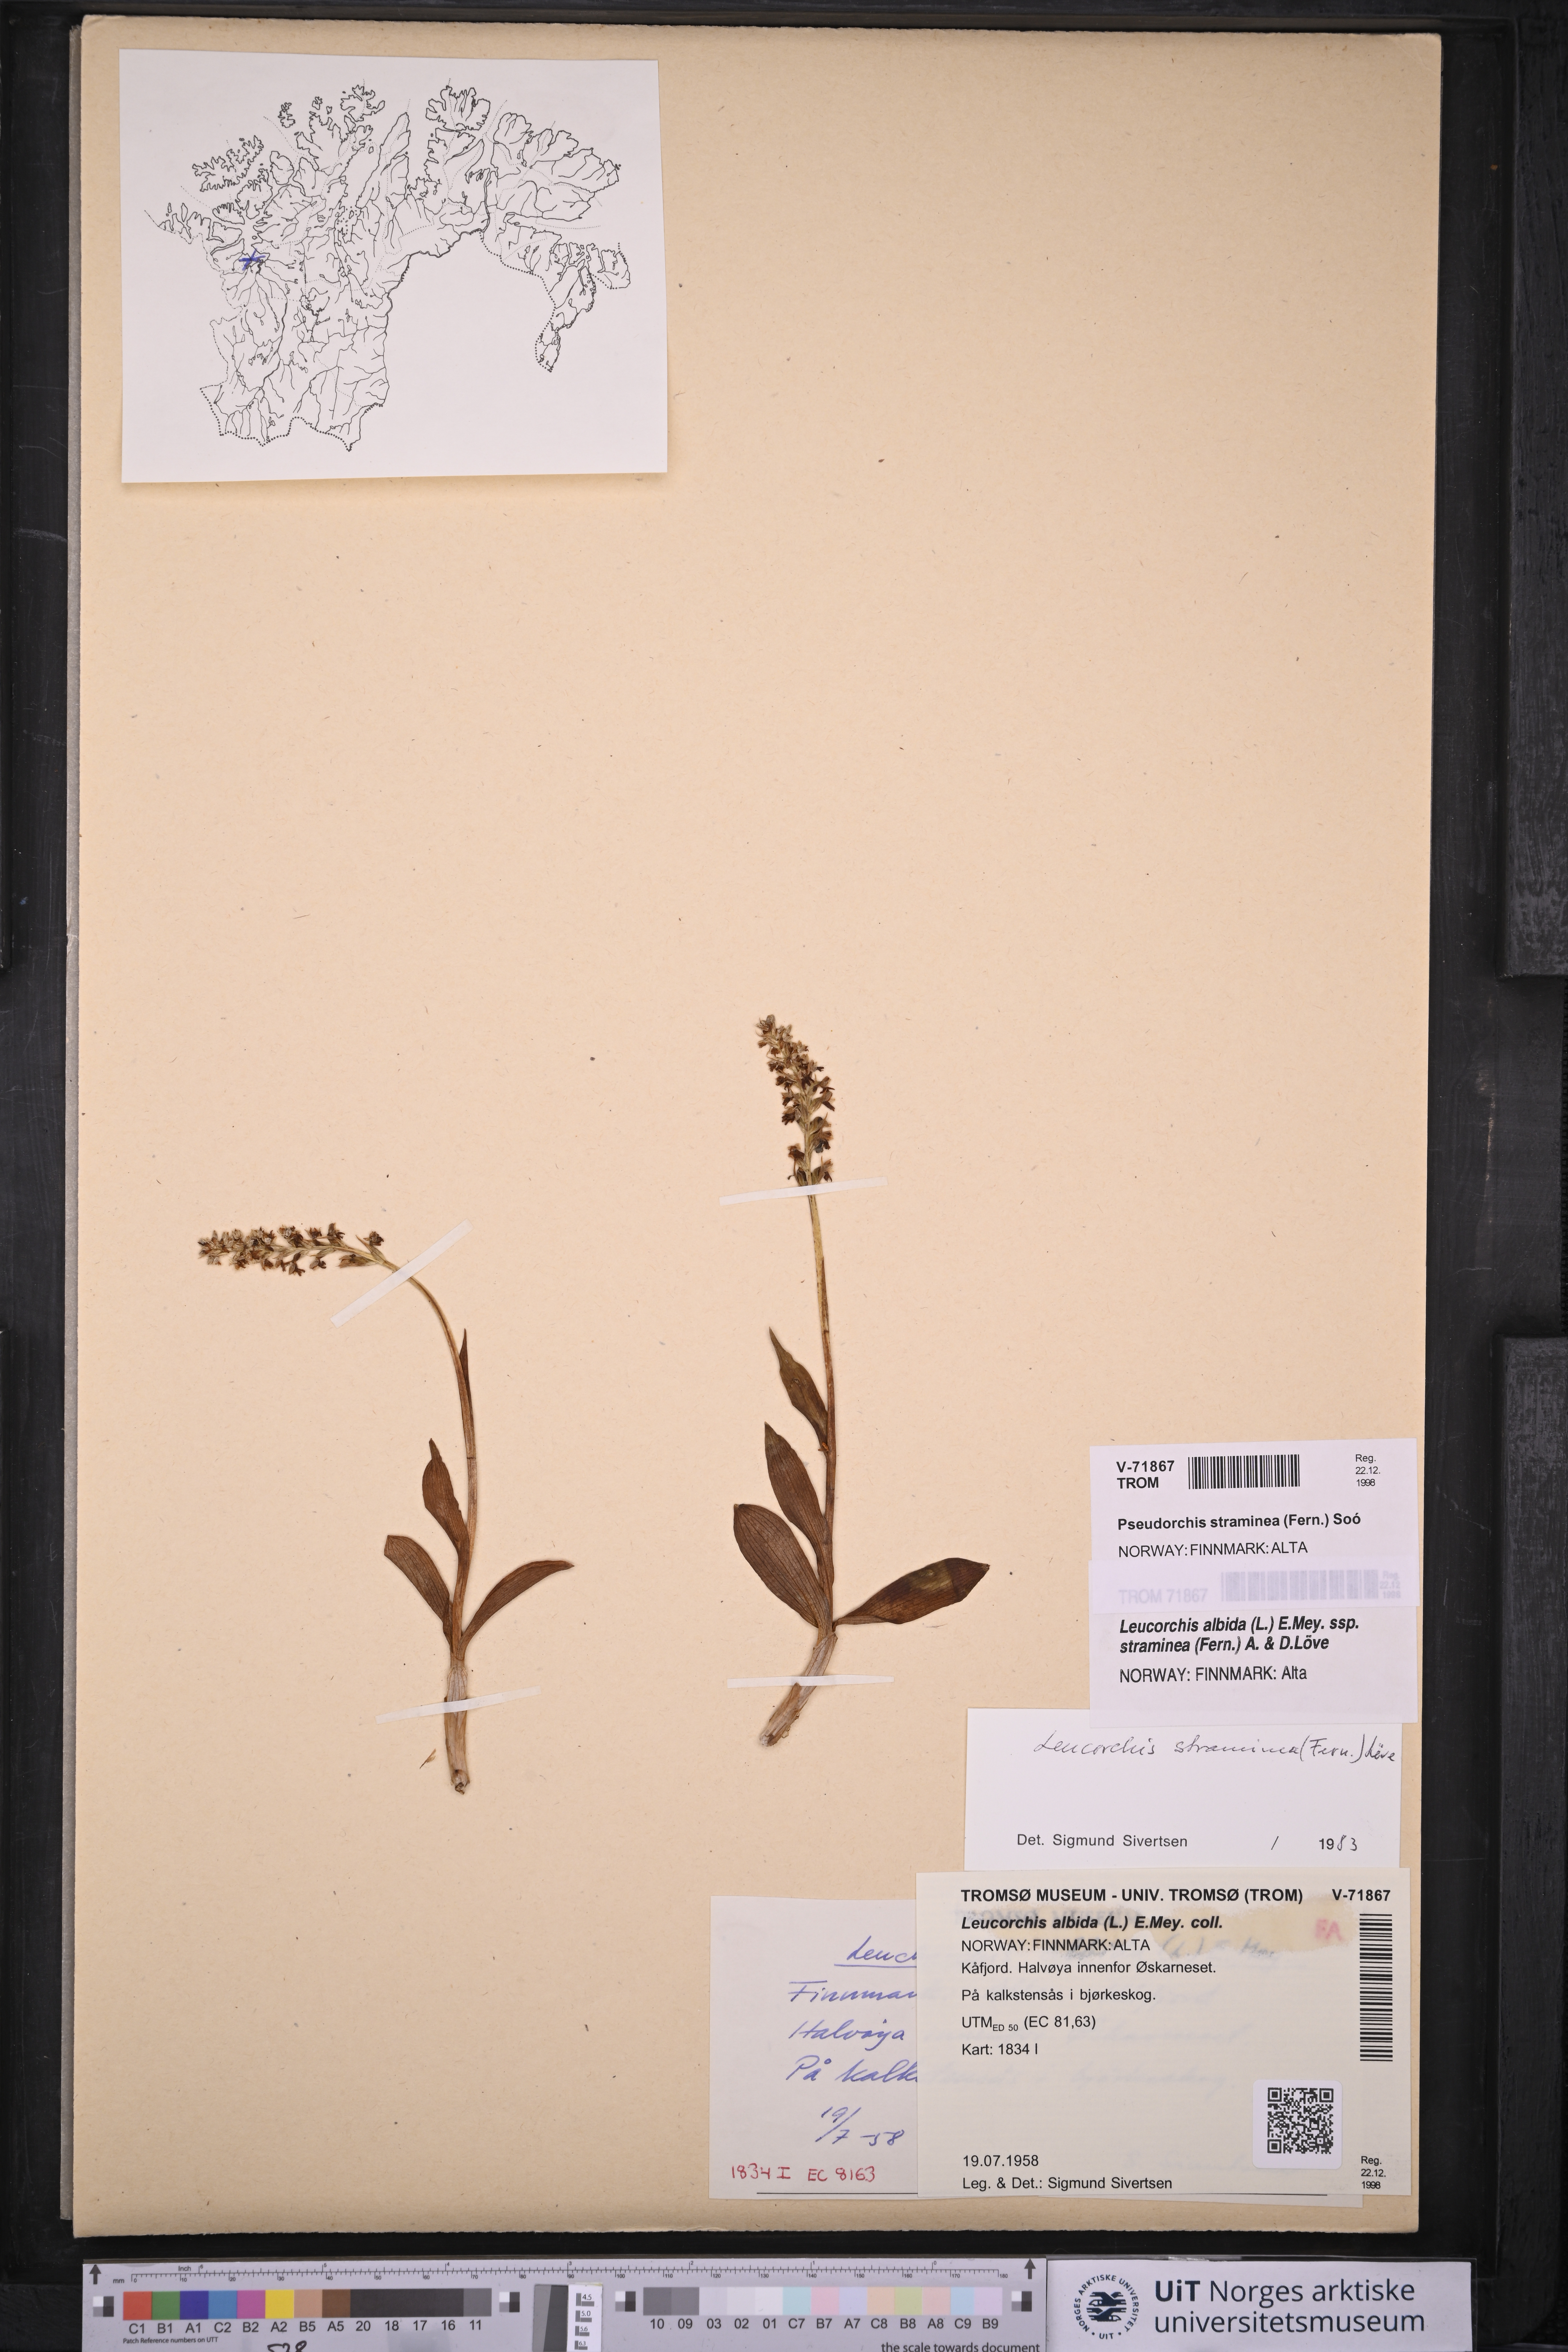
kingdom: Plantae
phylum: Tracheophyta
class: Liliopsida
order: Asparagales
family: Orchidaceae
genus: Pseudorchis
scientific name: Pseudorchis straminea
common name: Vanilla-scented bog orchid
